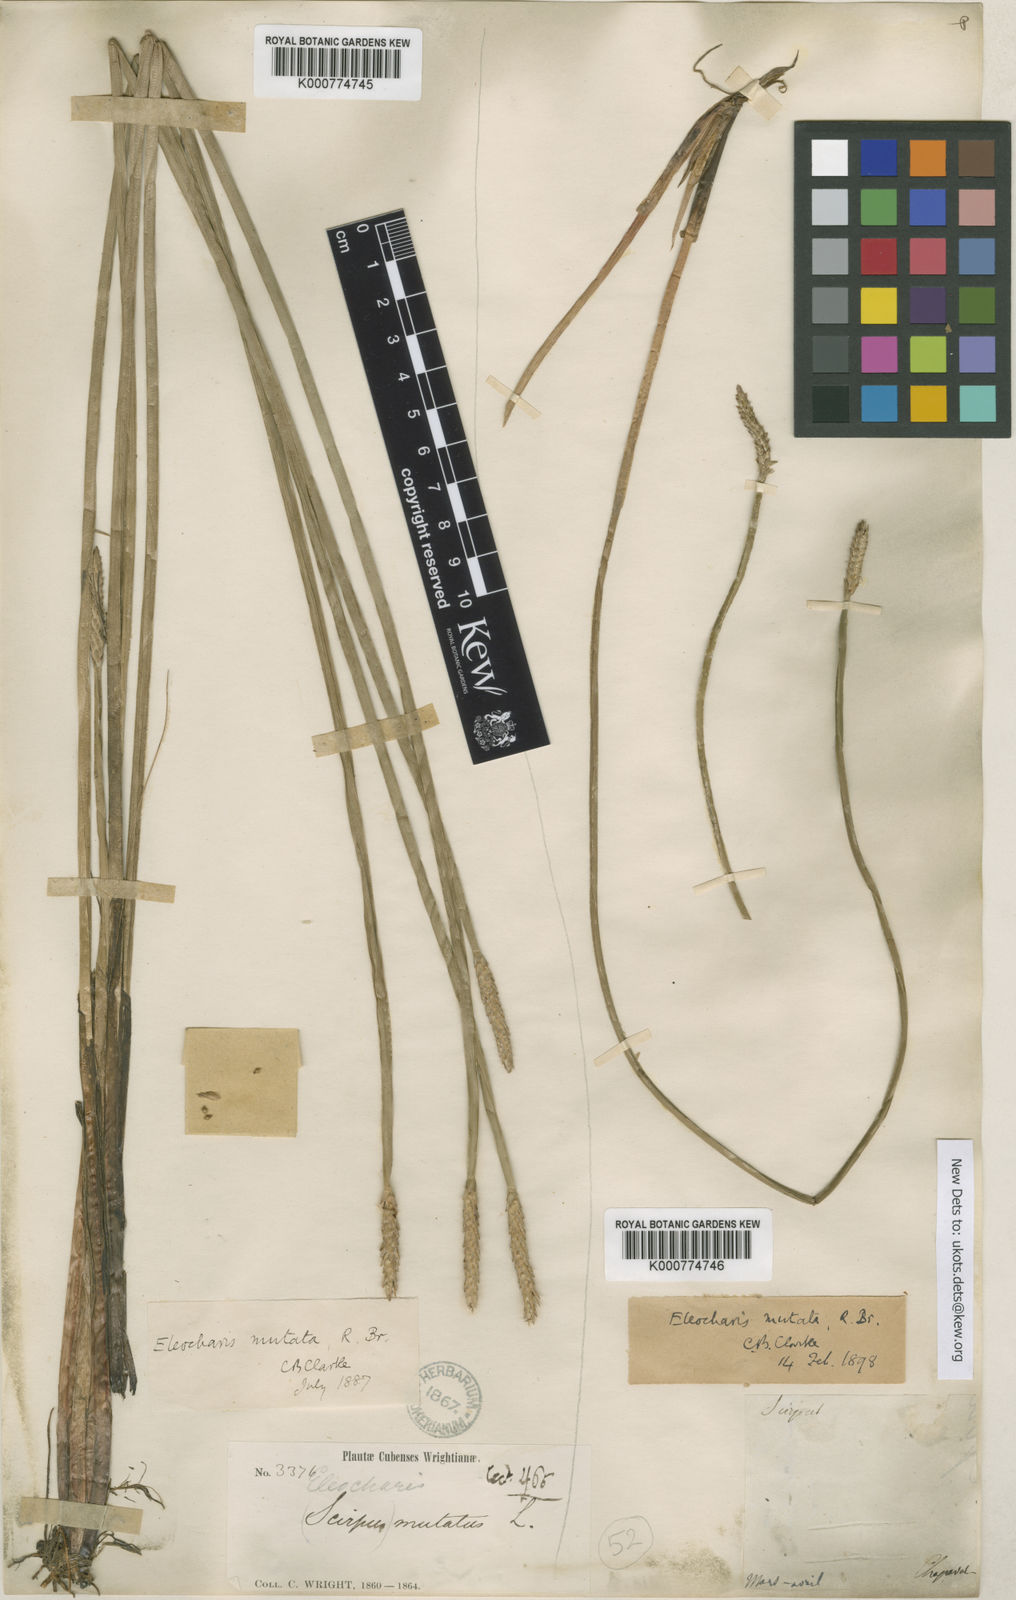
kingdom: Plantae
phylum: Tracheophyta
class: Liliopsida
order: Poales
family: Cyperaceae
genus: Eleocharis
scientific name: Eleocharis mutata
